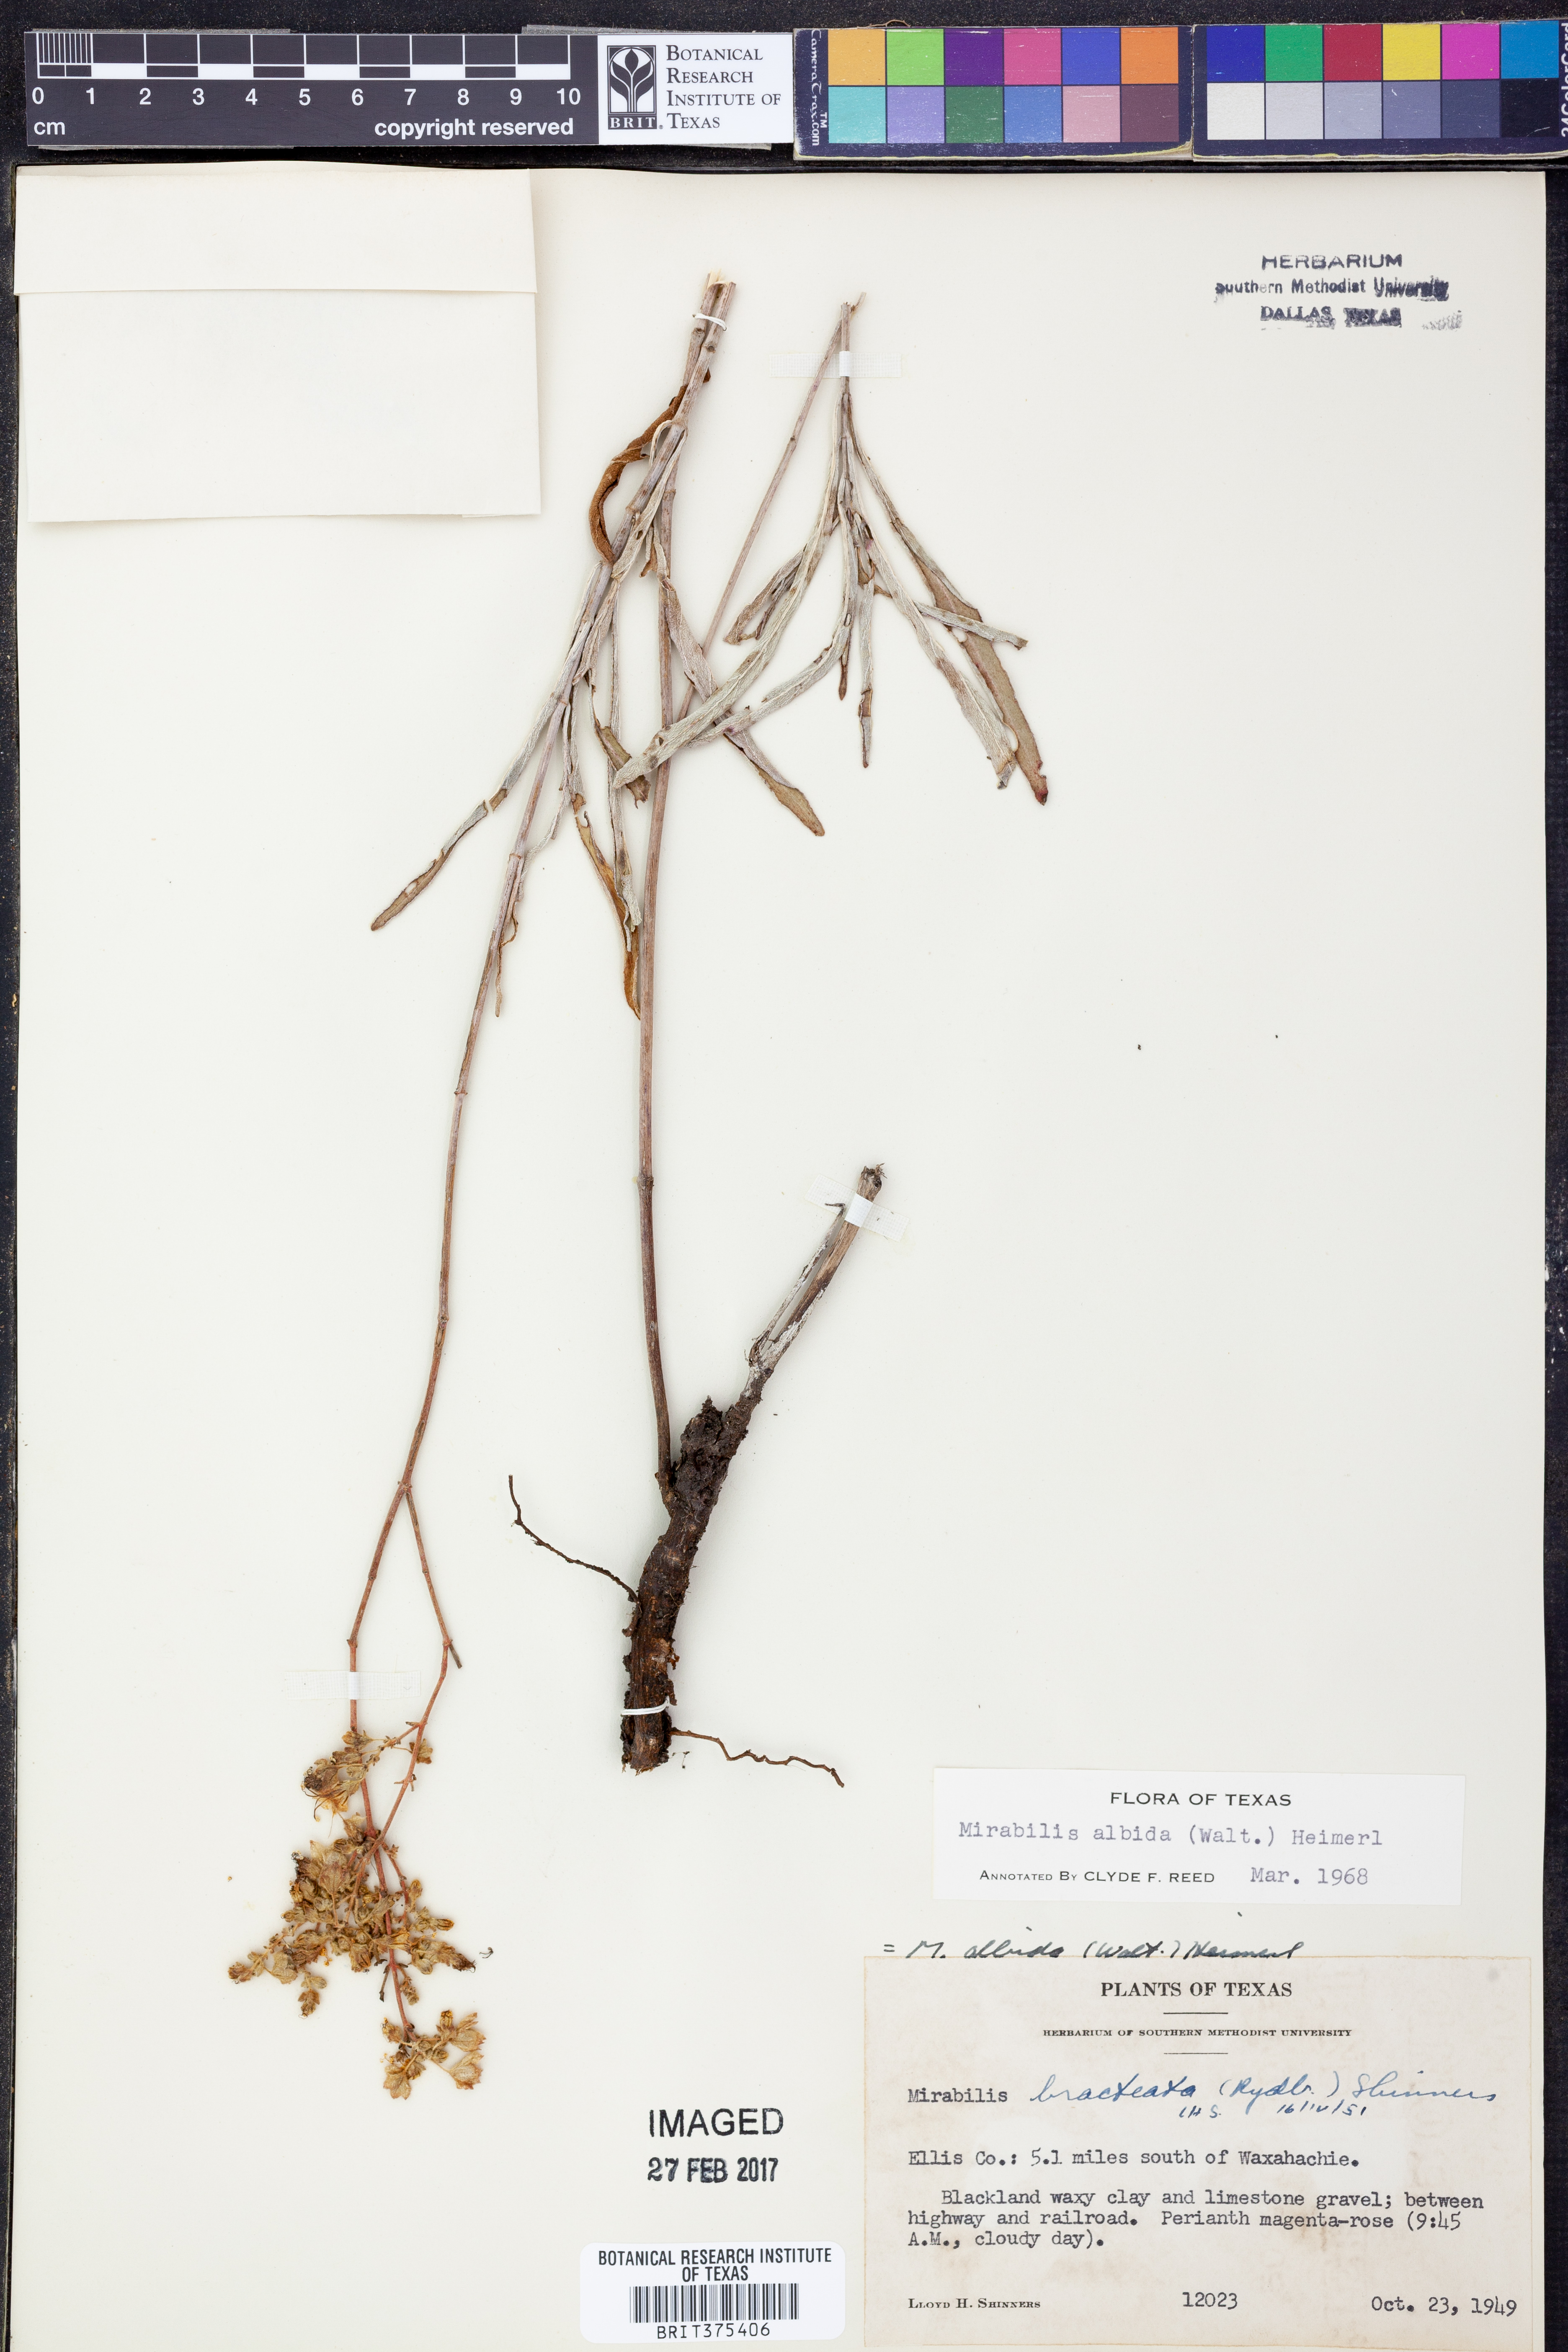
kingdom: Plantae
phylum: Tracheophyta
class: Magnoliopsida
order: Caryophyllales
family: Nyctaginaceae
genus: Mirabilis
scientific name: Mirabilis albida
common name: Hairy four-o'clock
